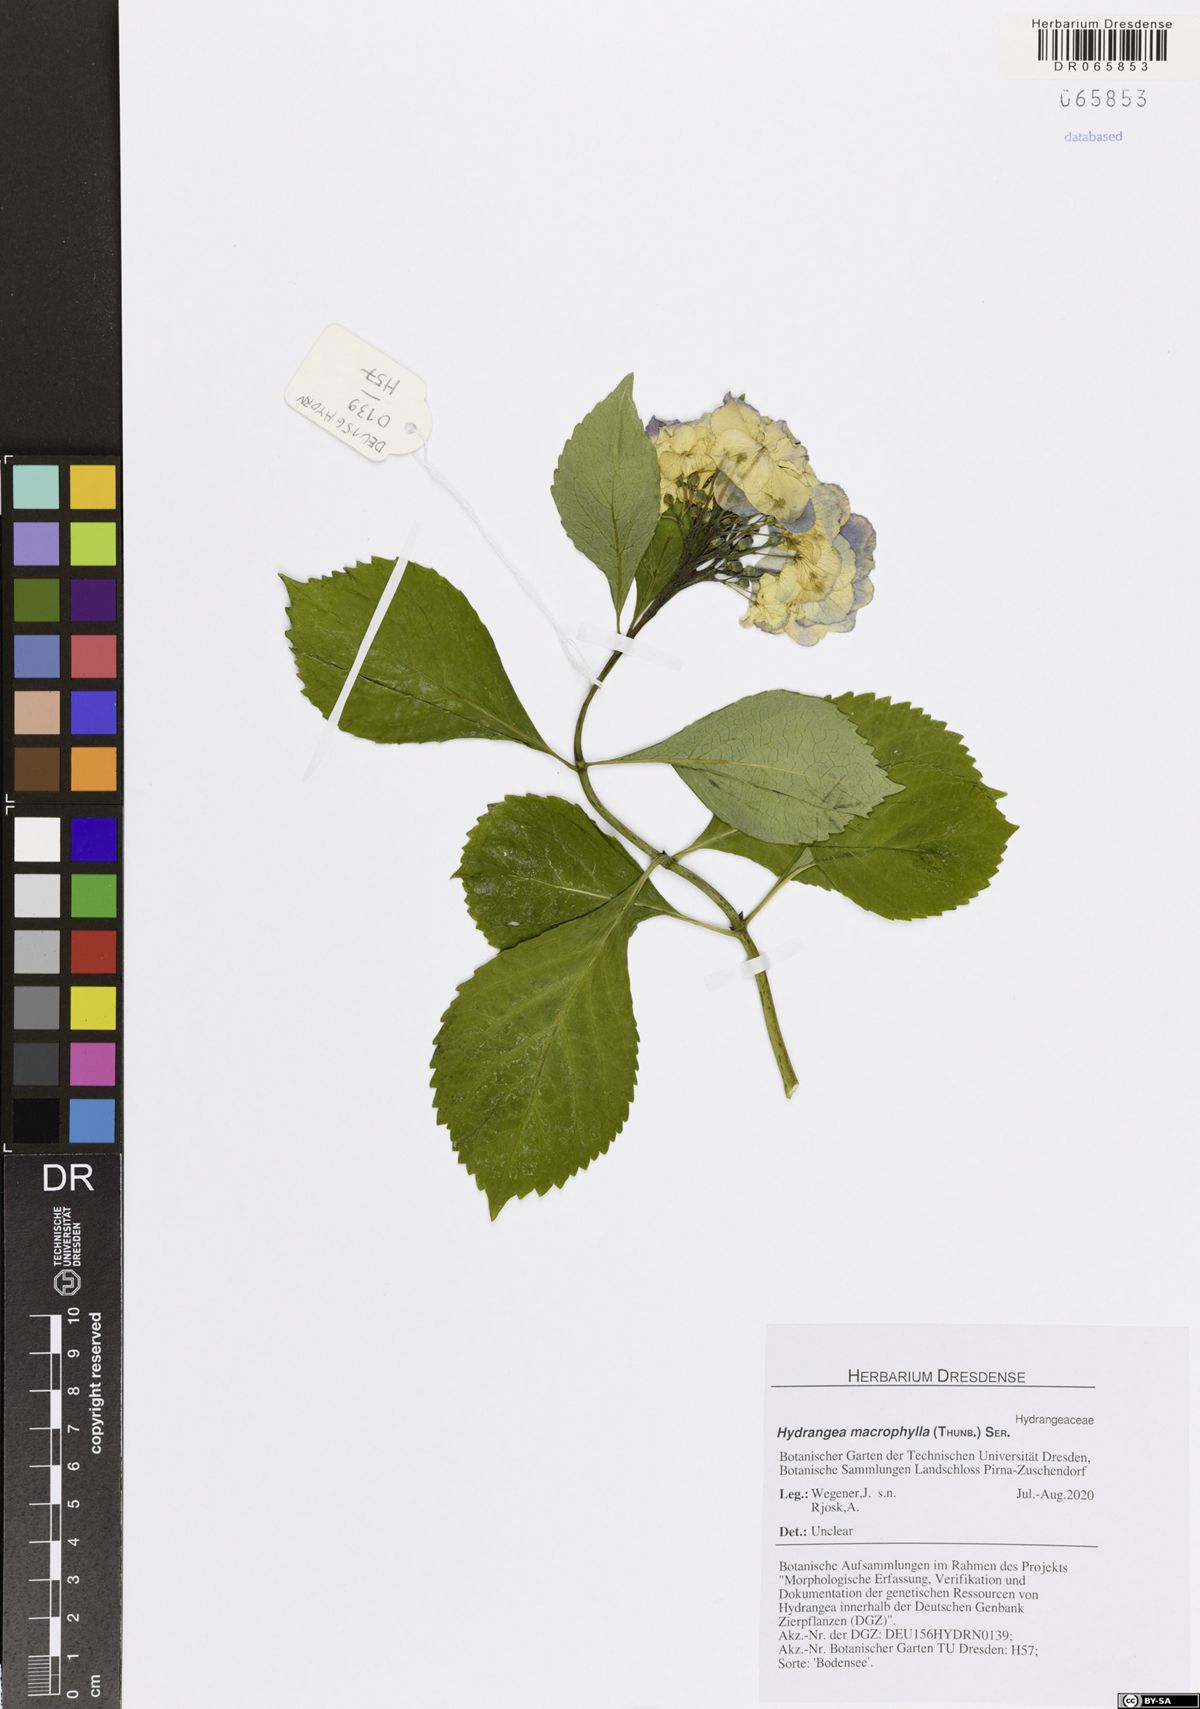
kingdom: Plantae
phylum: Tracheophyta
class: Magnoliopsida
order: Cornales
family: Hydrangeaceae
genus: Hydrangea
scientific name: Hydrangea macrophylla
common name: Hydrangea
